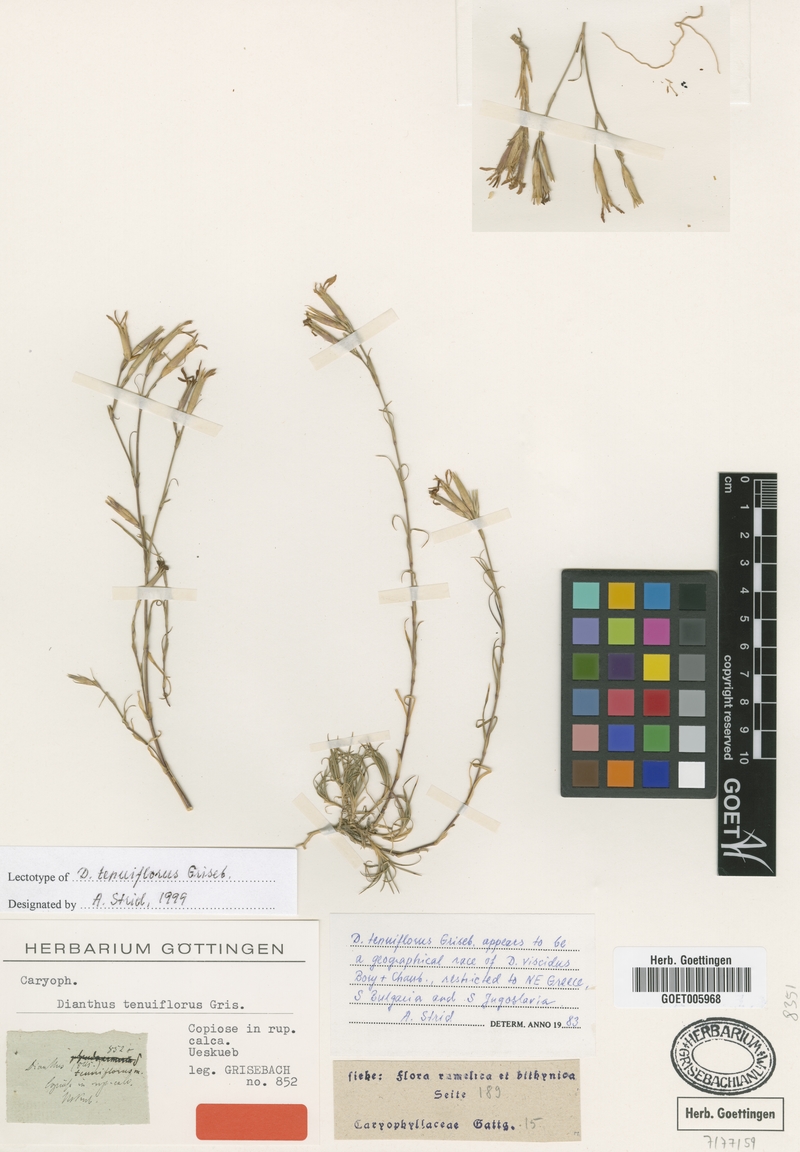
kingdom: Plantae
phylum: Tracheophyta
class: Magnoliopsida
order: Caryophyllales
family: Caryophyllaceae
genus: Dianthus
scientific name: Dianthus tenuiflorus
